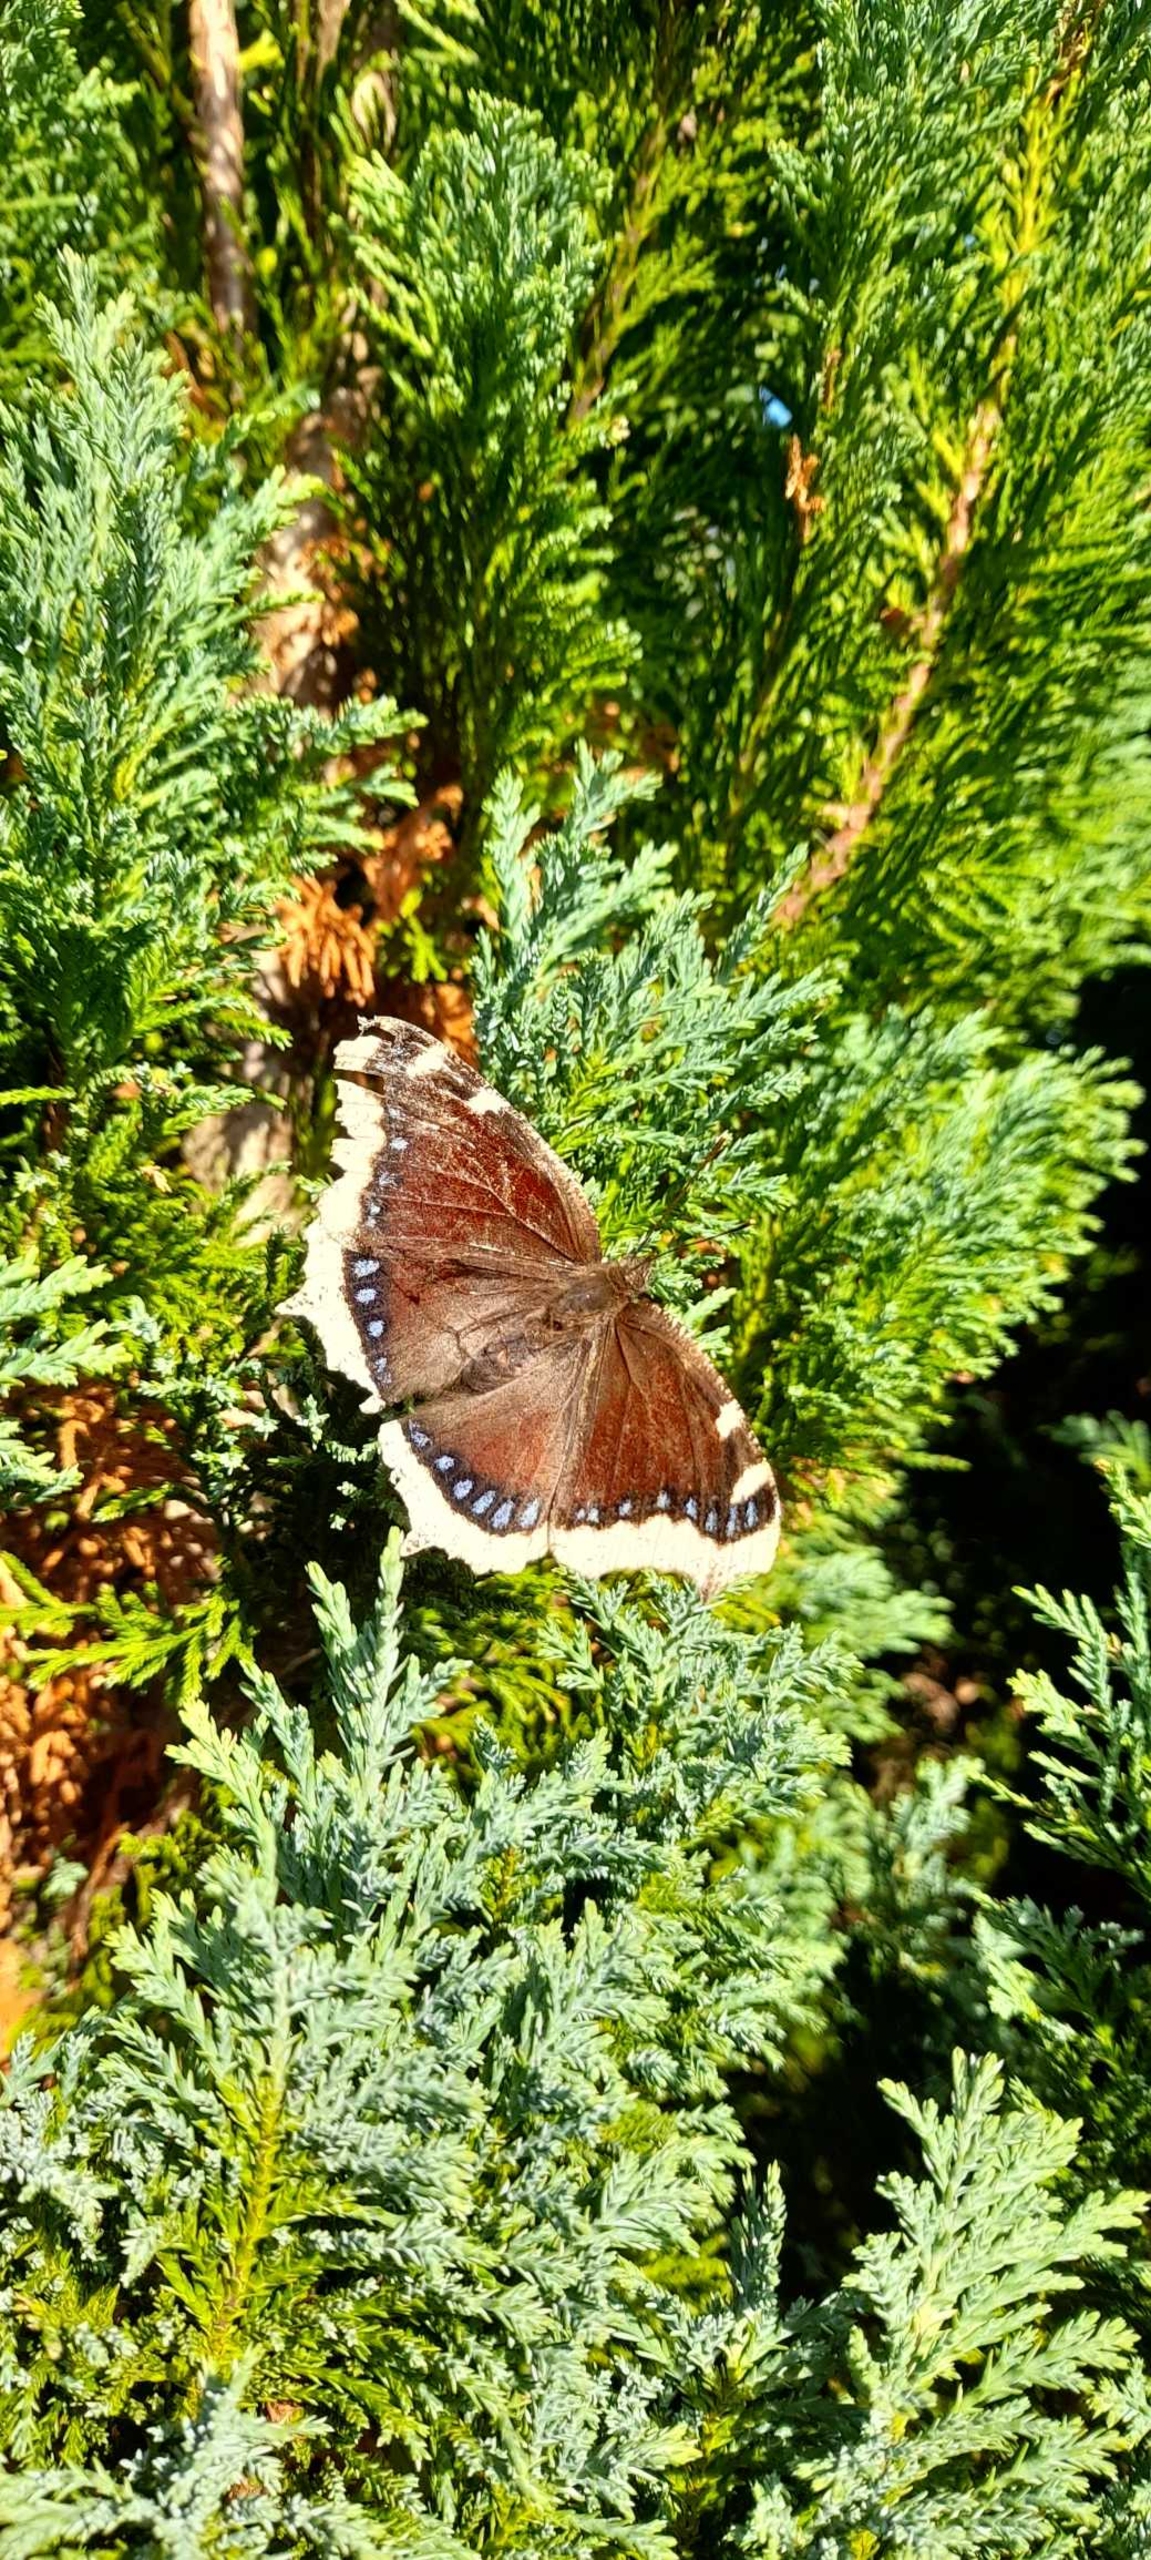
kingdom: Animalia
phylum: Arthropoda
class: Insecta
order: Lepidoptera
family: Nymphalidae
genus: Nymphalis
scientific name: Nymphalis antiopa
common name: Sørgekåbe
